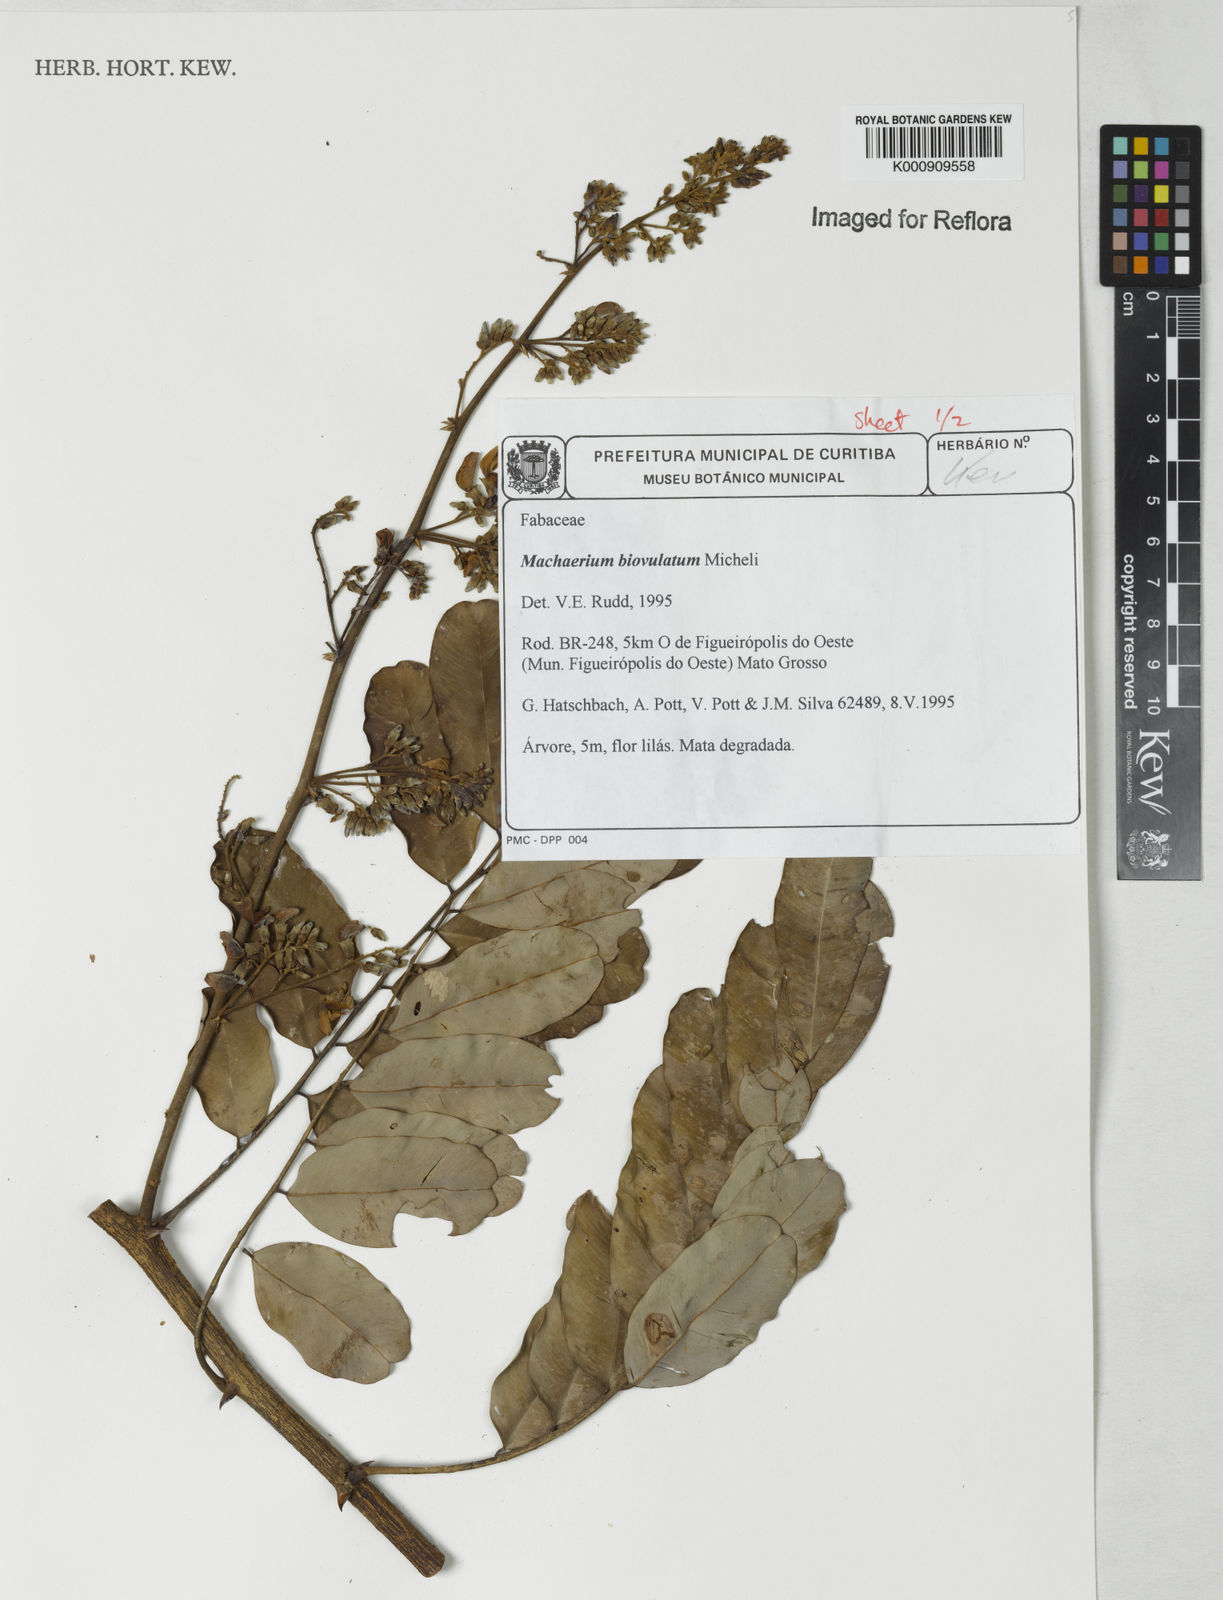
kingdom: Plantae
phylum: Tracheophyta
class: Magnoliopsida
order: Fabales
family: Fabaceae
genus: Machaerium
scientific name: Machaerium biovulatum
